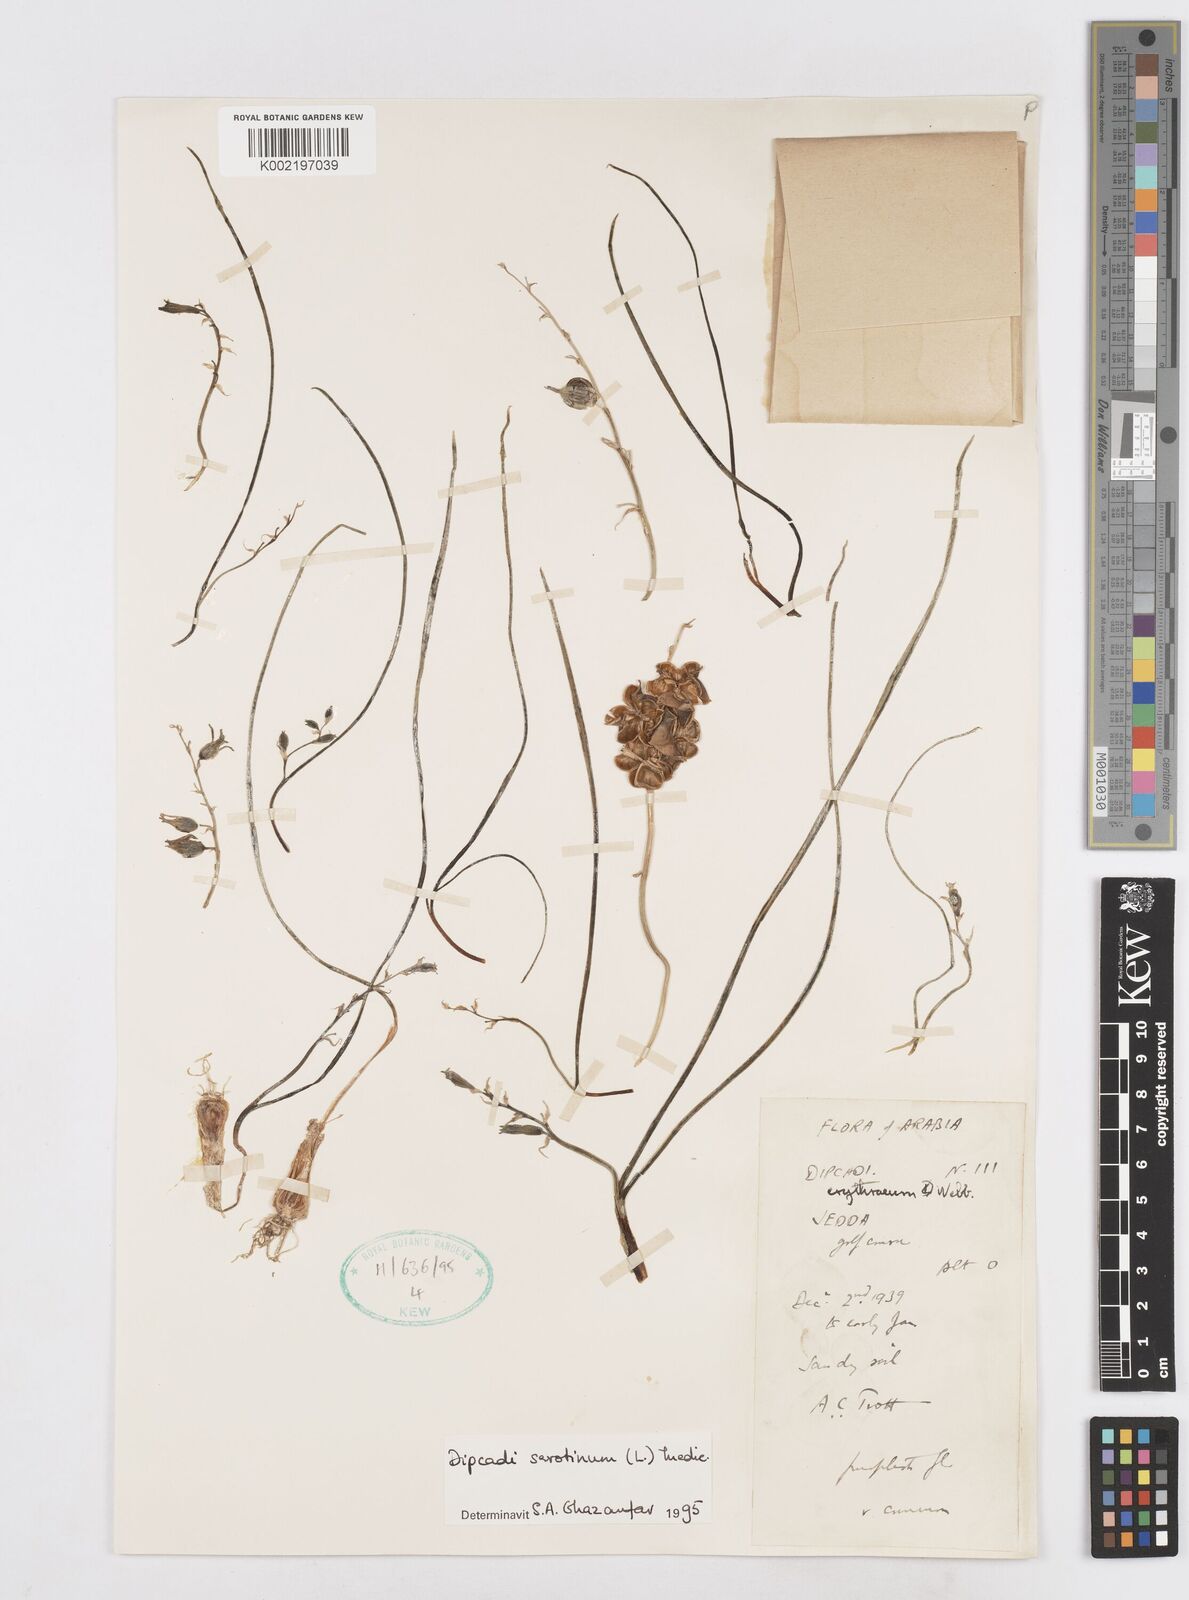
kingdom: Plantae
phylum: Tracheophyta
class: Liliopsida
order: Asparagales
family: Asparagaceae
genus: Dipcadi
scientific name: Dipcadi serotinum
